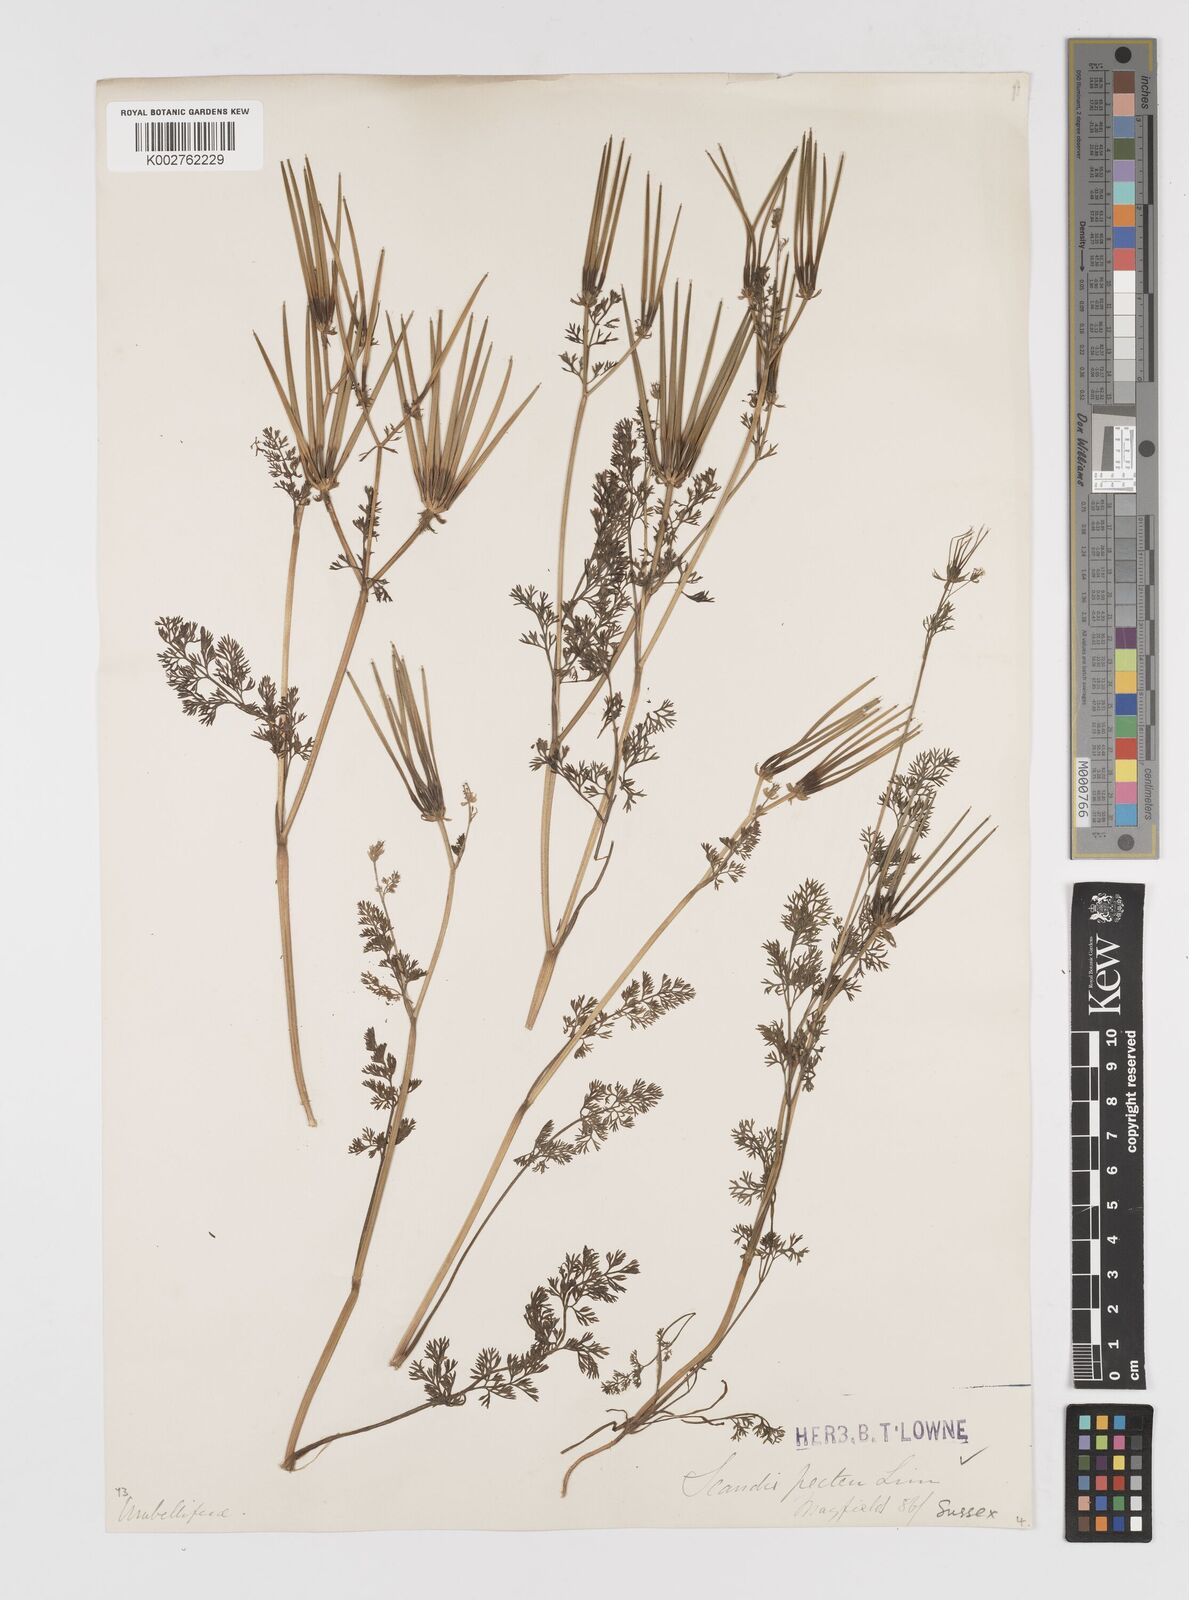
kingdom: Plantae
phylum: Tracheophyta
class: Magnoliopsida
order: Apiales
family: Apiaceae
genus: Scandix
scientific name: Scandix pecten-veneris
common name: Shepherd's-needle
